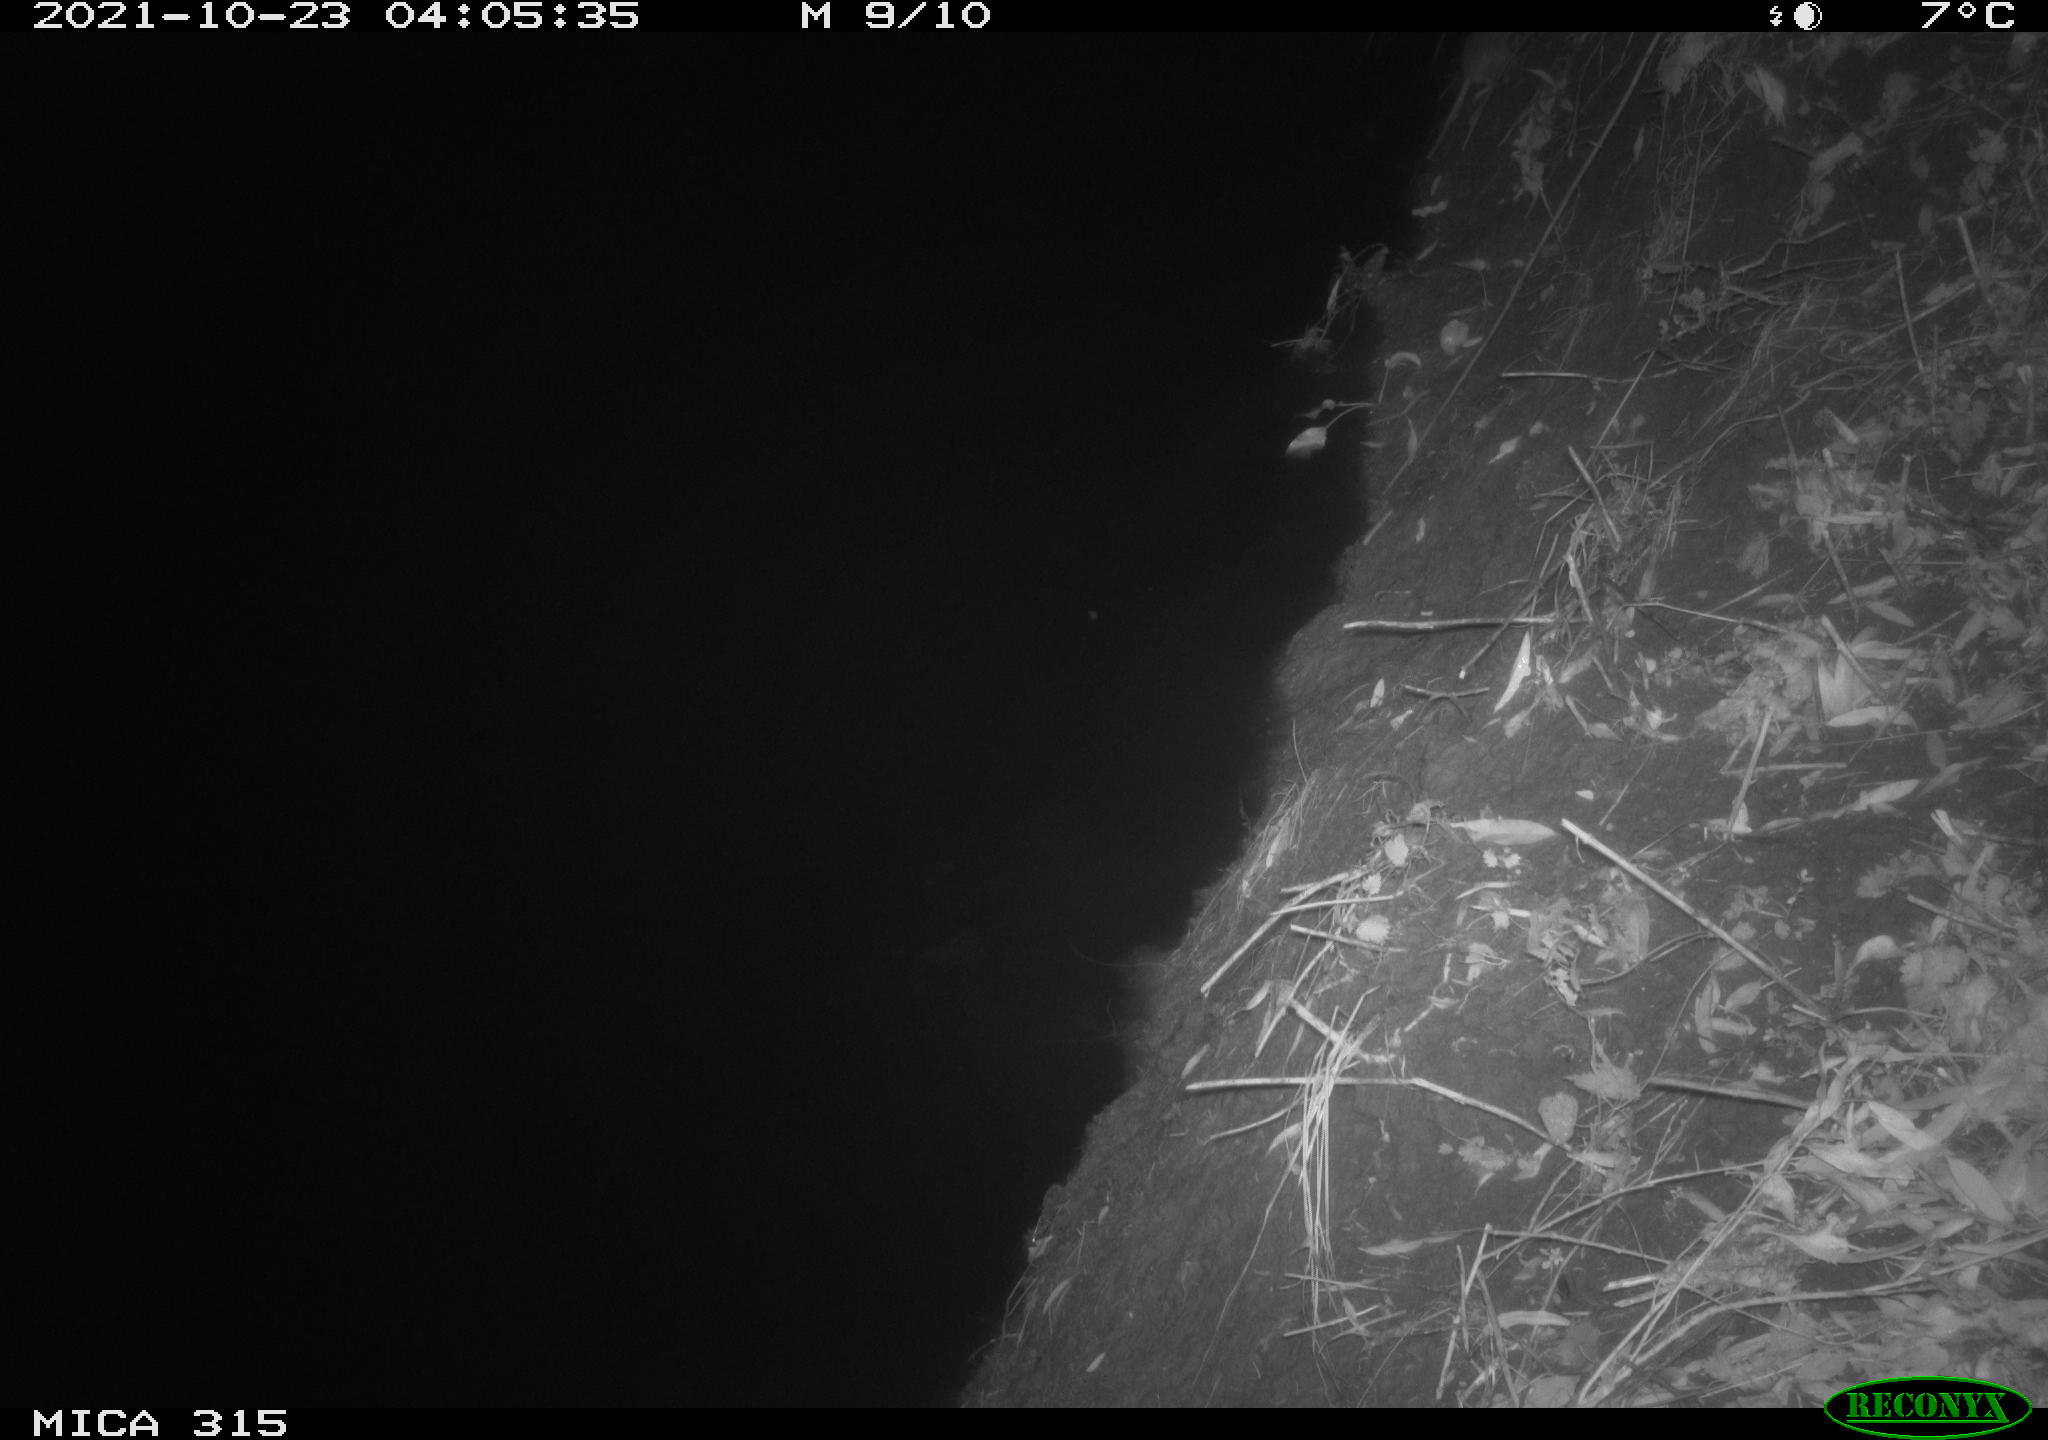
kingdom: Animalia
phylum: Chordata
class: Mammalia
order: Rodentia
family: Muridae
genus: Rattus
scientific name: Rattus norvegicus
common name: Brown rat
